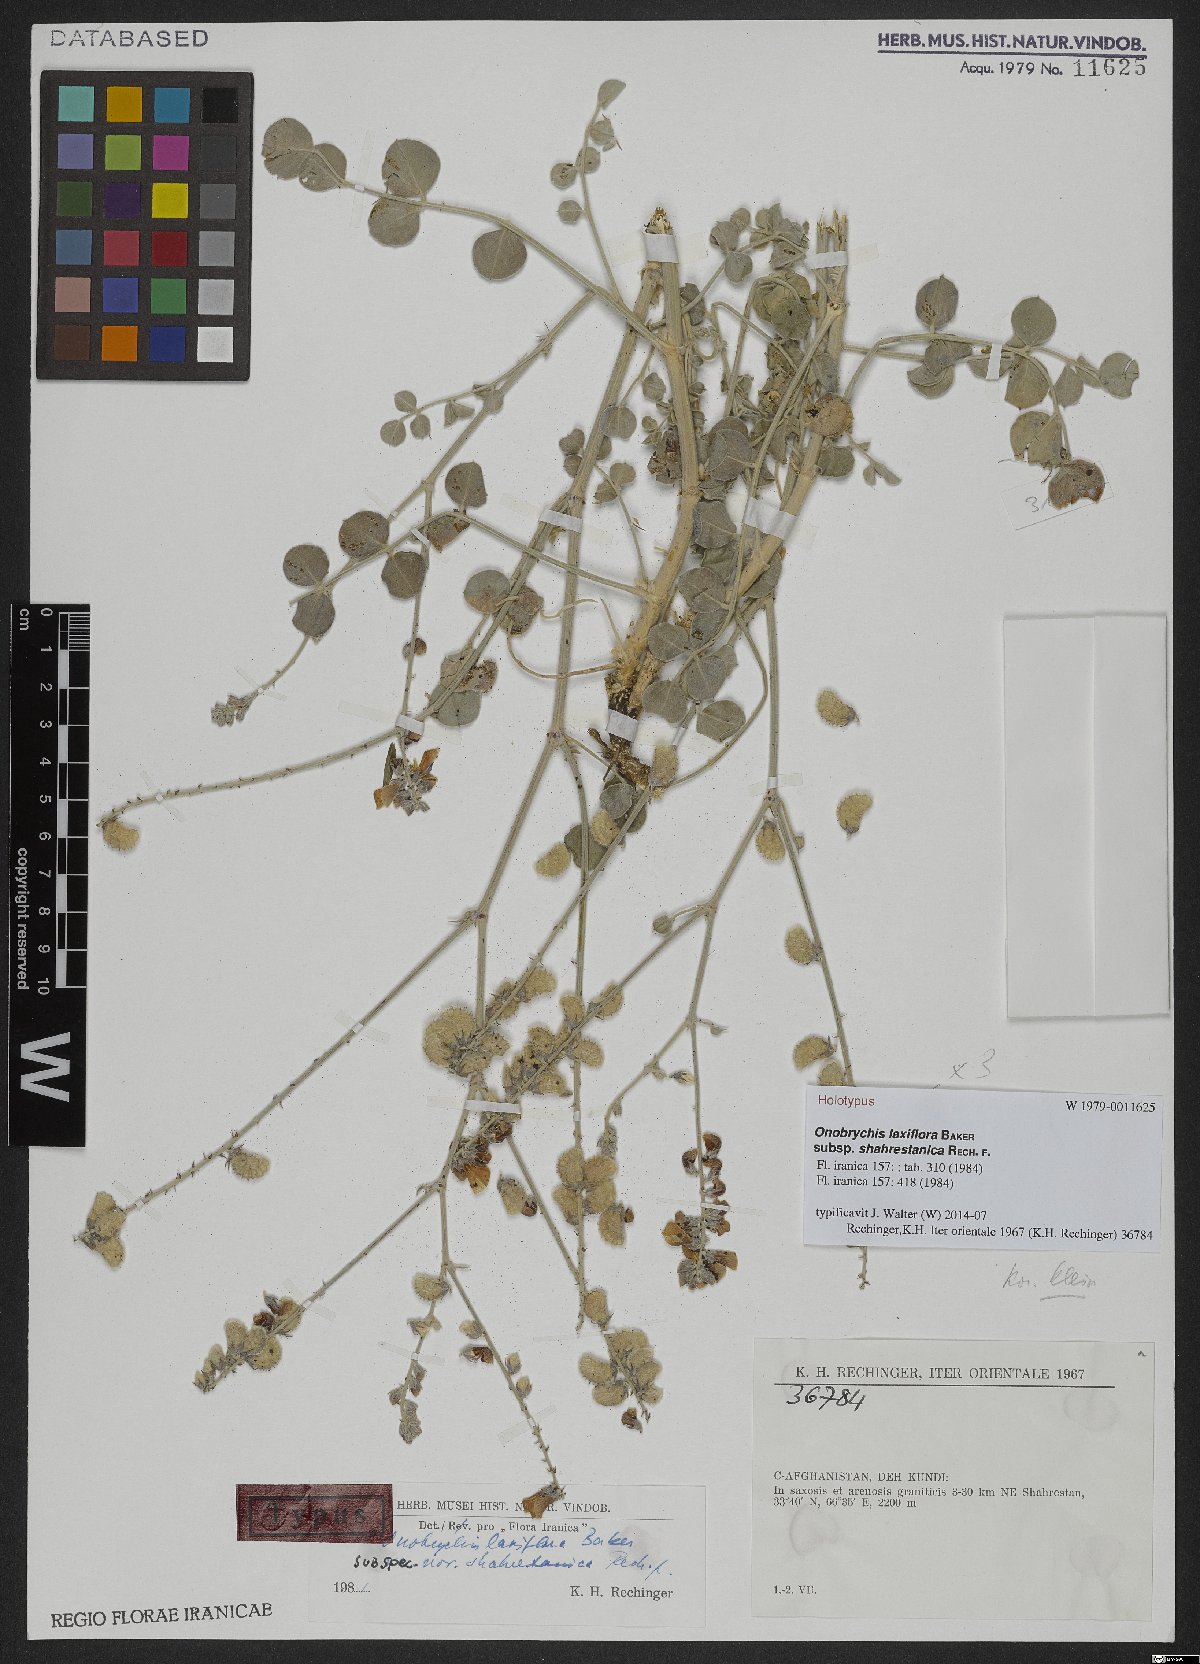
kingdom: Plantae
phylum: Tracheophyta
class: Magnoliopsida
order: Fabales
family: Fabaceae
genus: Onobrychis
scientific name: Onobrychis laxiflora
